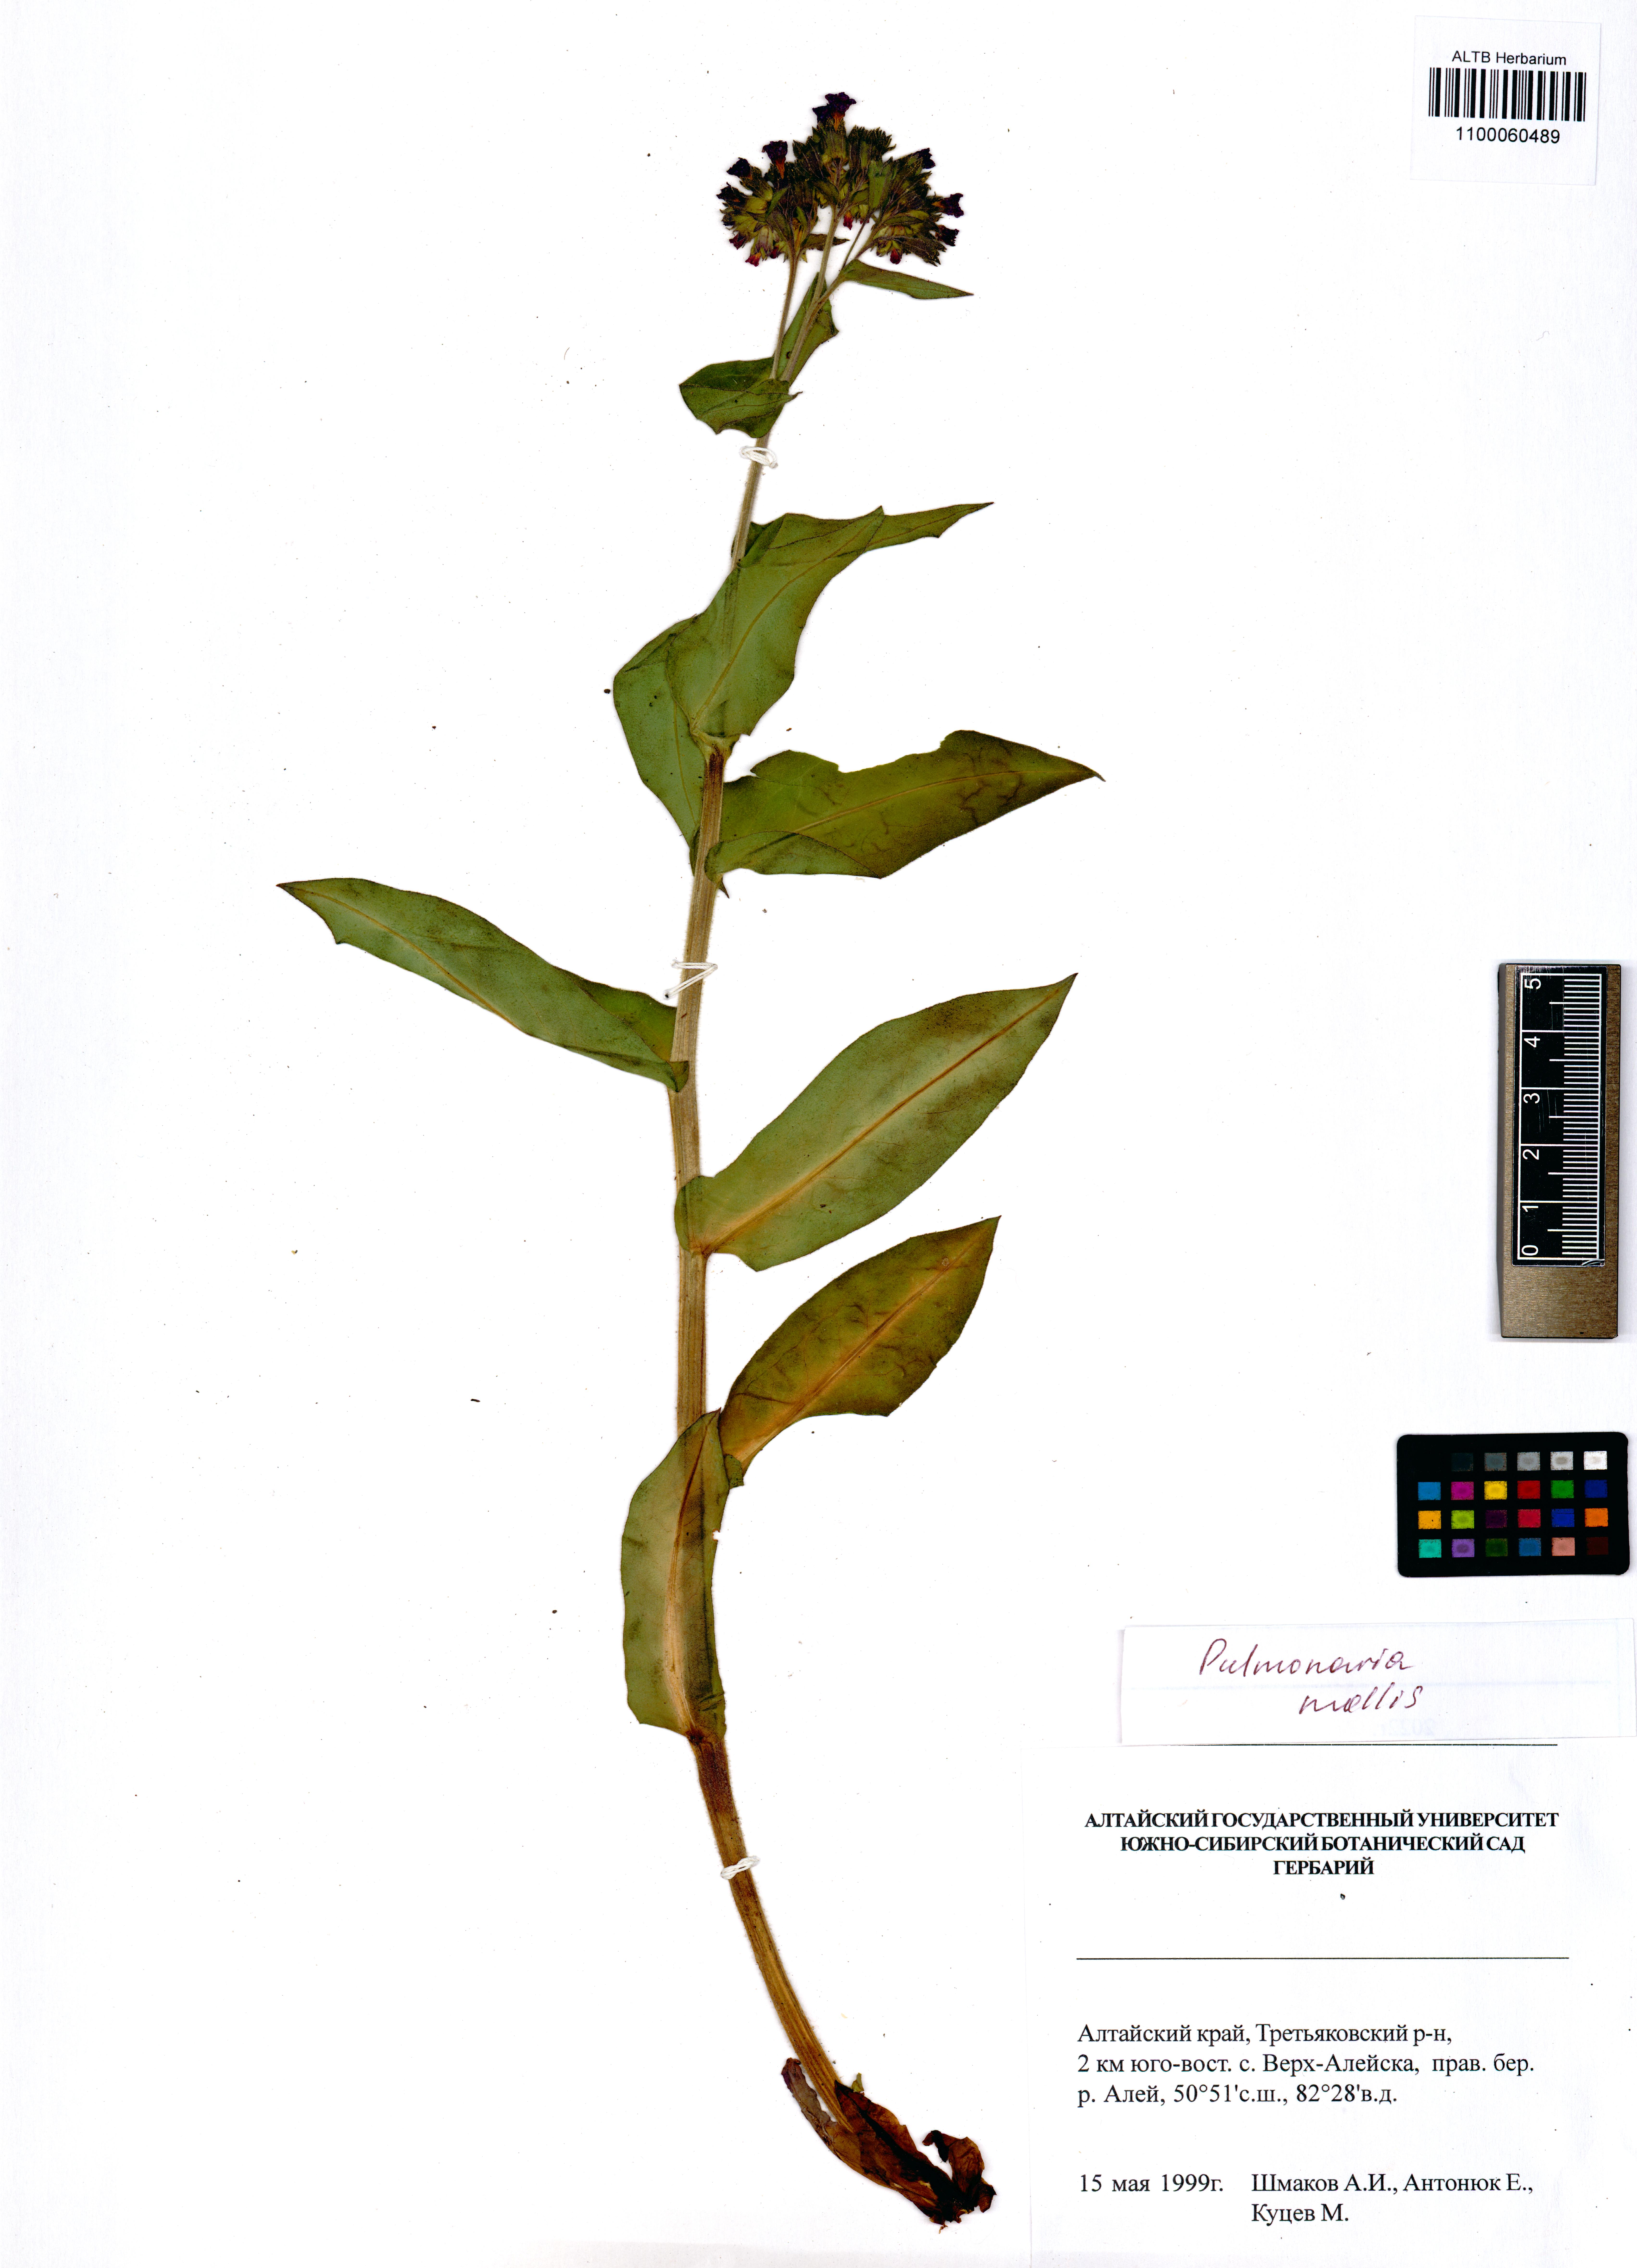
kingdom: Plantae
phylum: Tracheophyta
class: Magnoliopsida
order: Boraginales
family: Boraginaceae
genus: Pulmonaria
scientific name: Pulmonaria mollis
